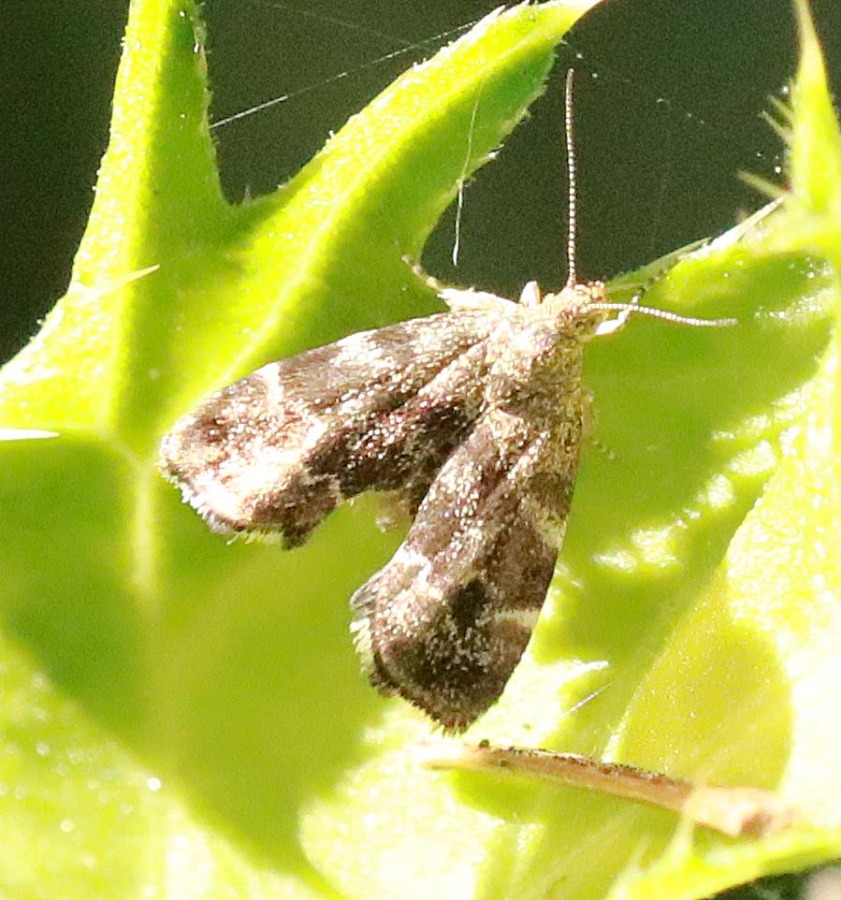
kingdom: Animalia
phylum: Arthropoda
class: Insecta
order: Lepidoptera
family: Choreutidae
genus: Anthophila
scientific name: Anthophila fabriciana
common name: Bredvinget nældevikler
